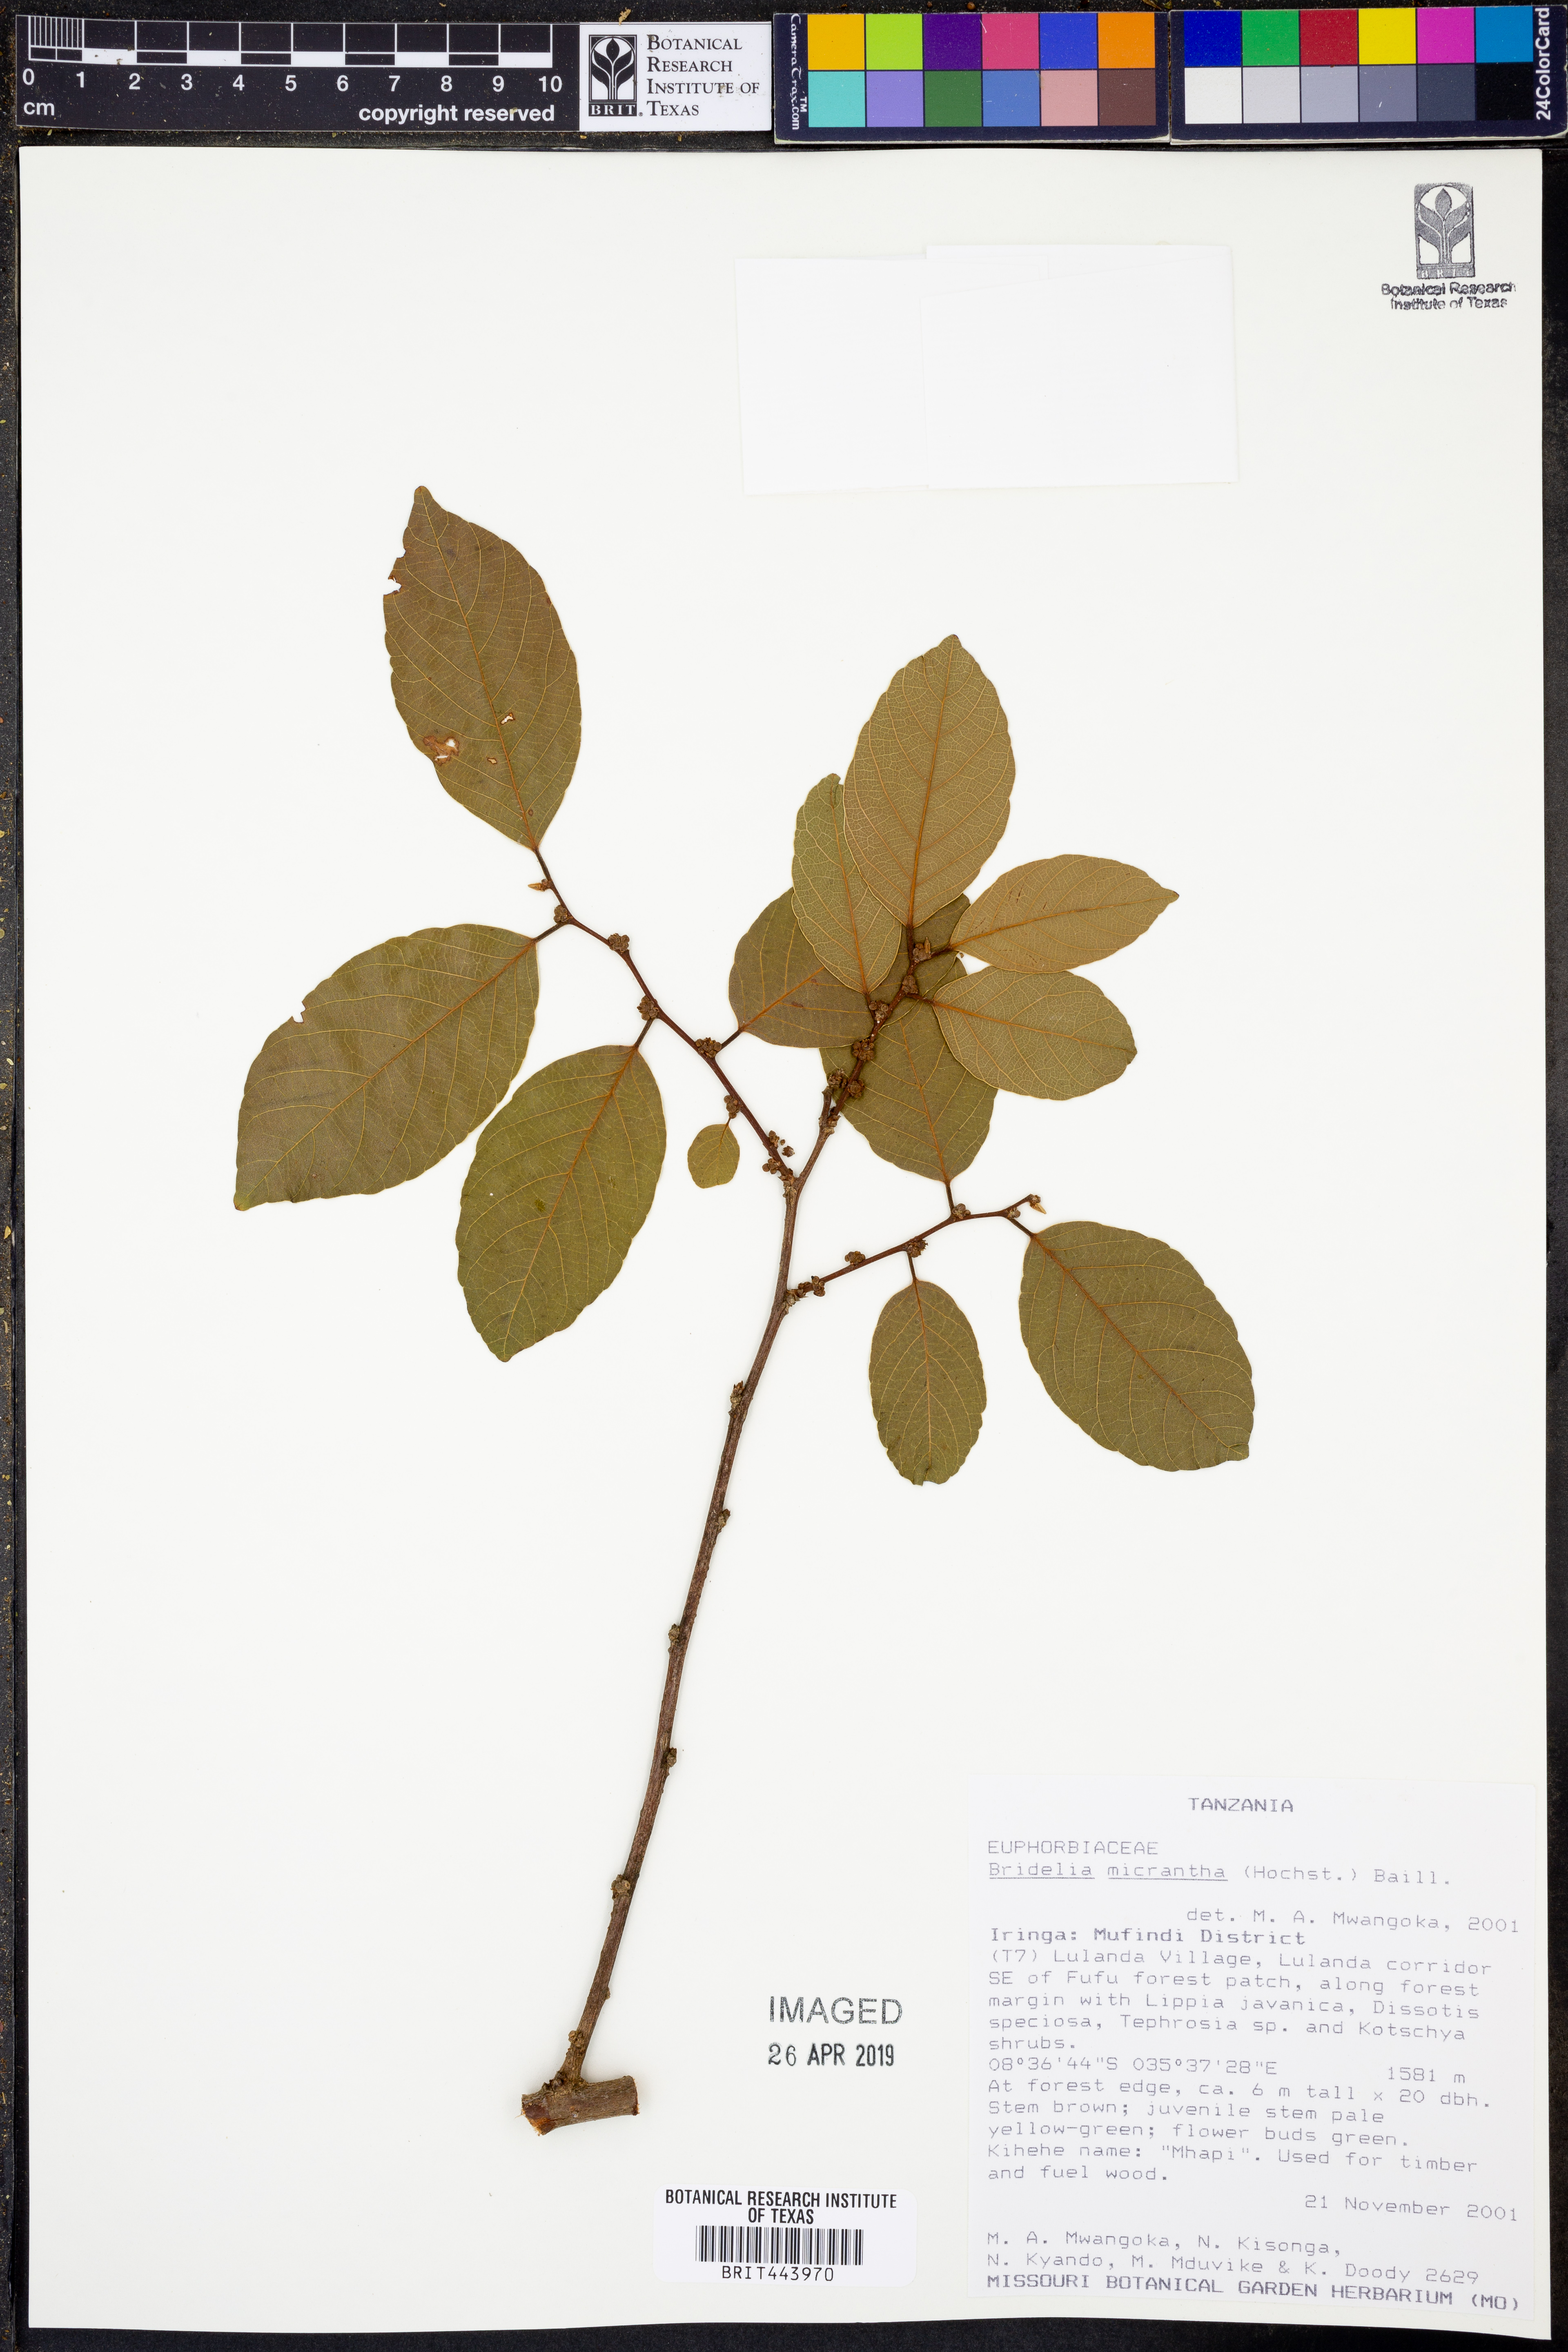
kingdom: Plantae
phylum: Tracheophyta
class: Magnoliopsida
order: Malpighiales
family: Phyllanthaceae
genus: Bridelia
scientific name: Bridelia micrantha
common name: Bridelia
